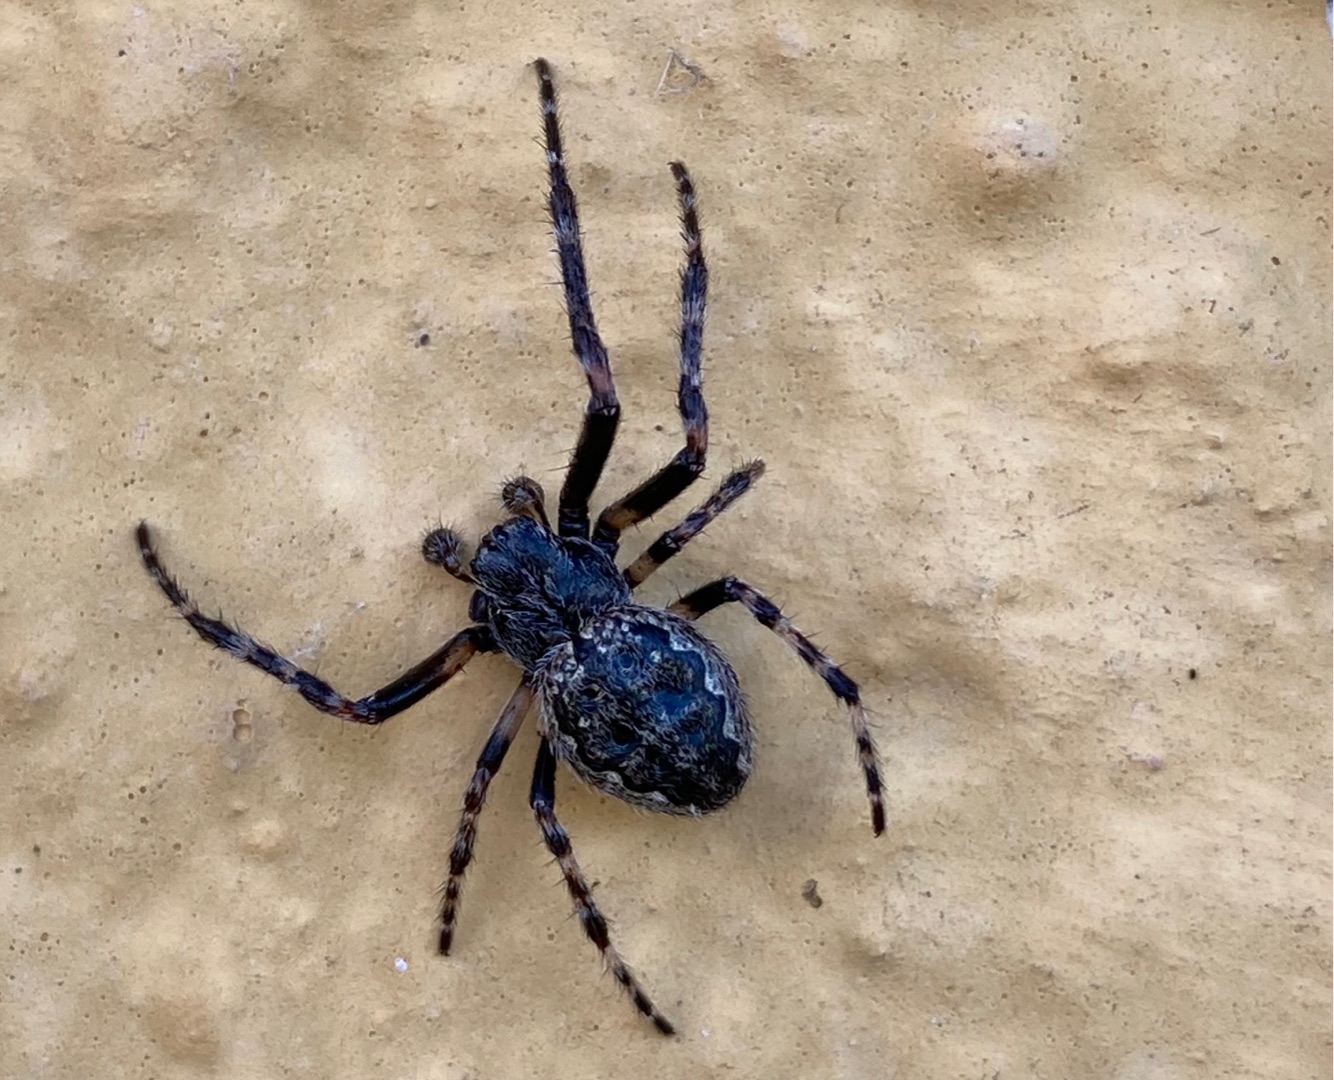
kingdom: Animalia
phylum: Arthropoda
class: Arachnida
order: Araneae
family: Araneidae
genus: Nuctenea
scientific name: Nuctenea umbratica
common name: Flad hjulspinder
